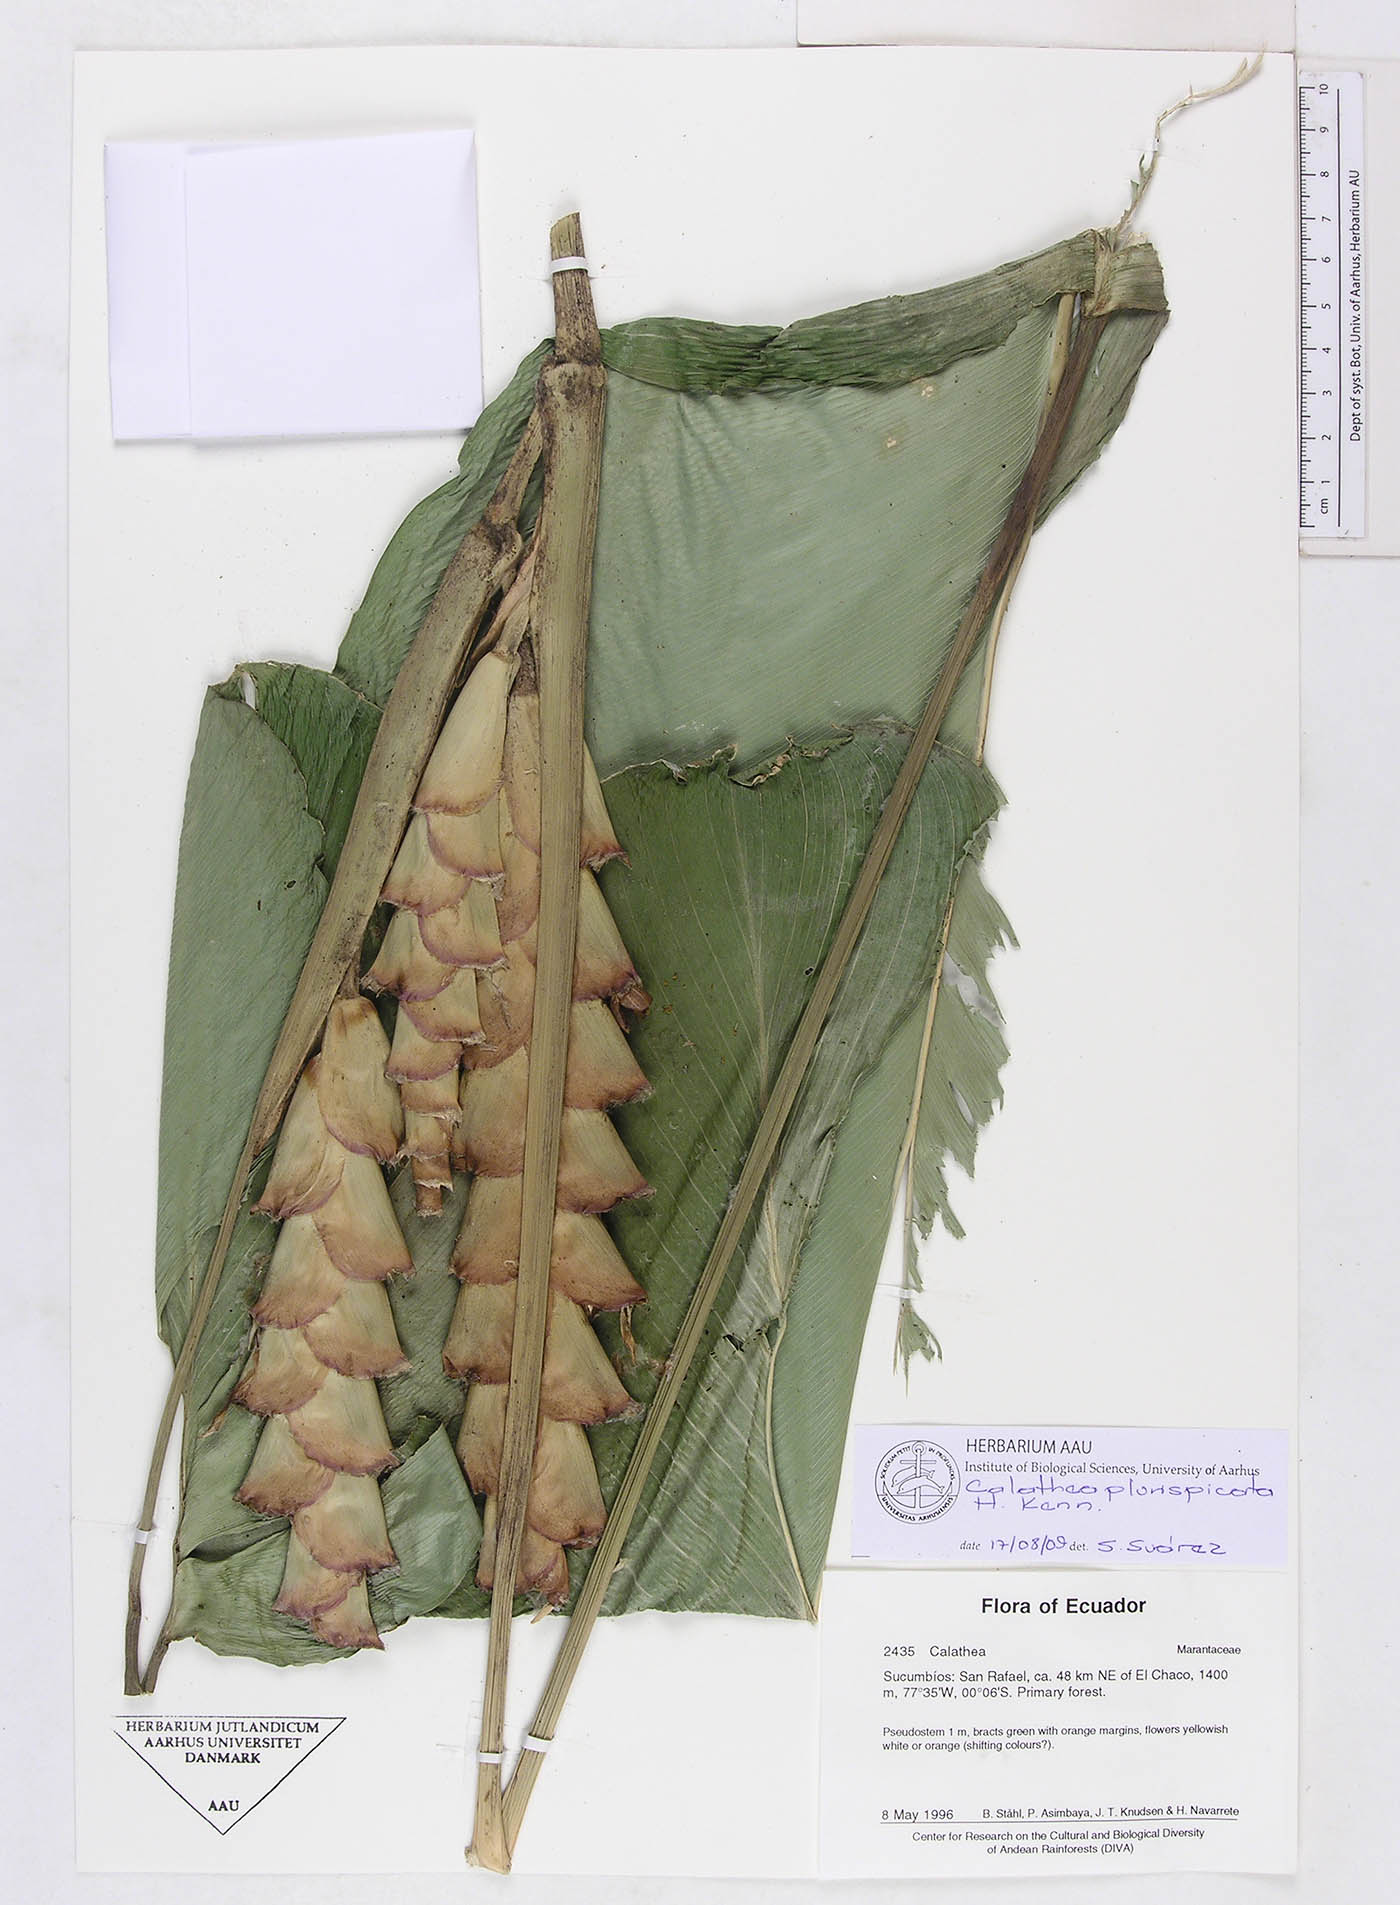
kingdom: Plantae
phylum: Tracheophyta
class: Liliopsida
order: Zingiberales
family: Marantaceae
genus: Calathea
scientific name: Calathea plurispicata
